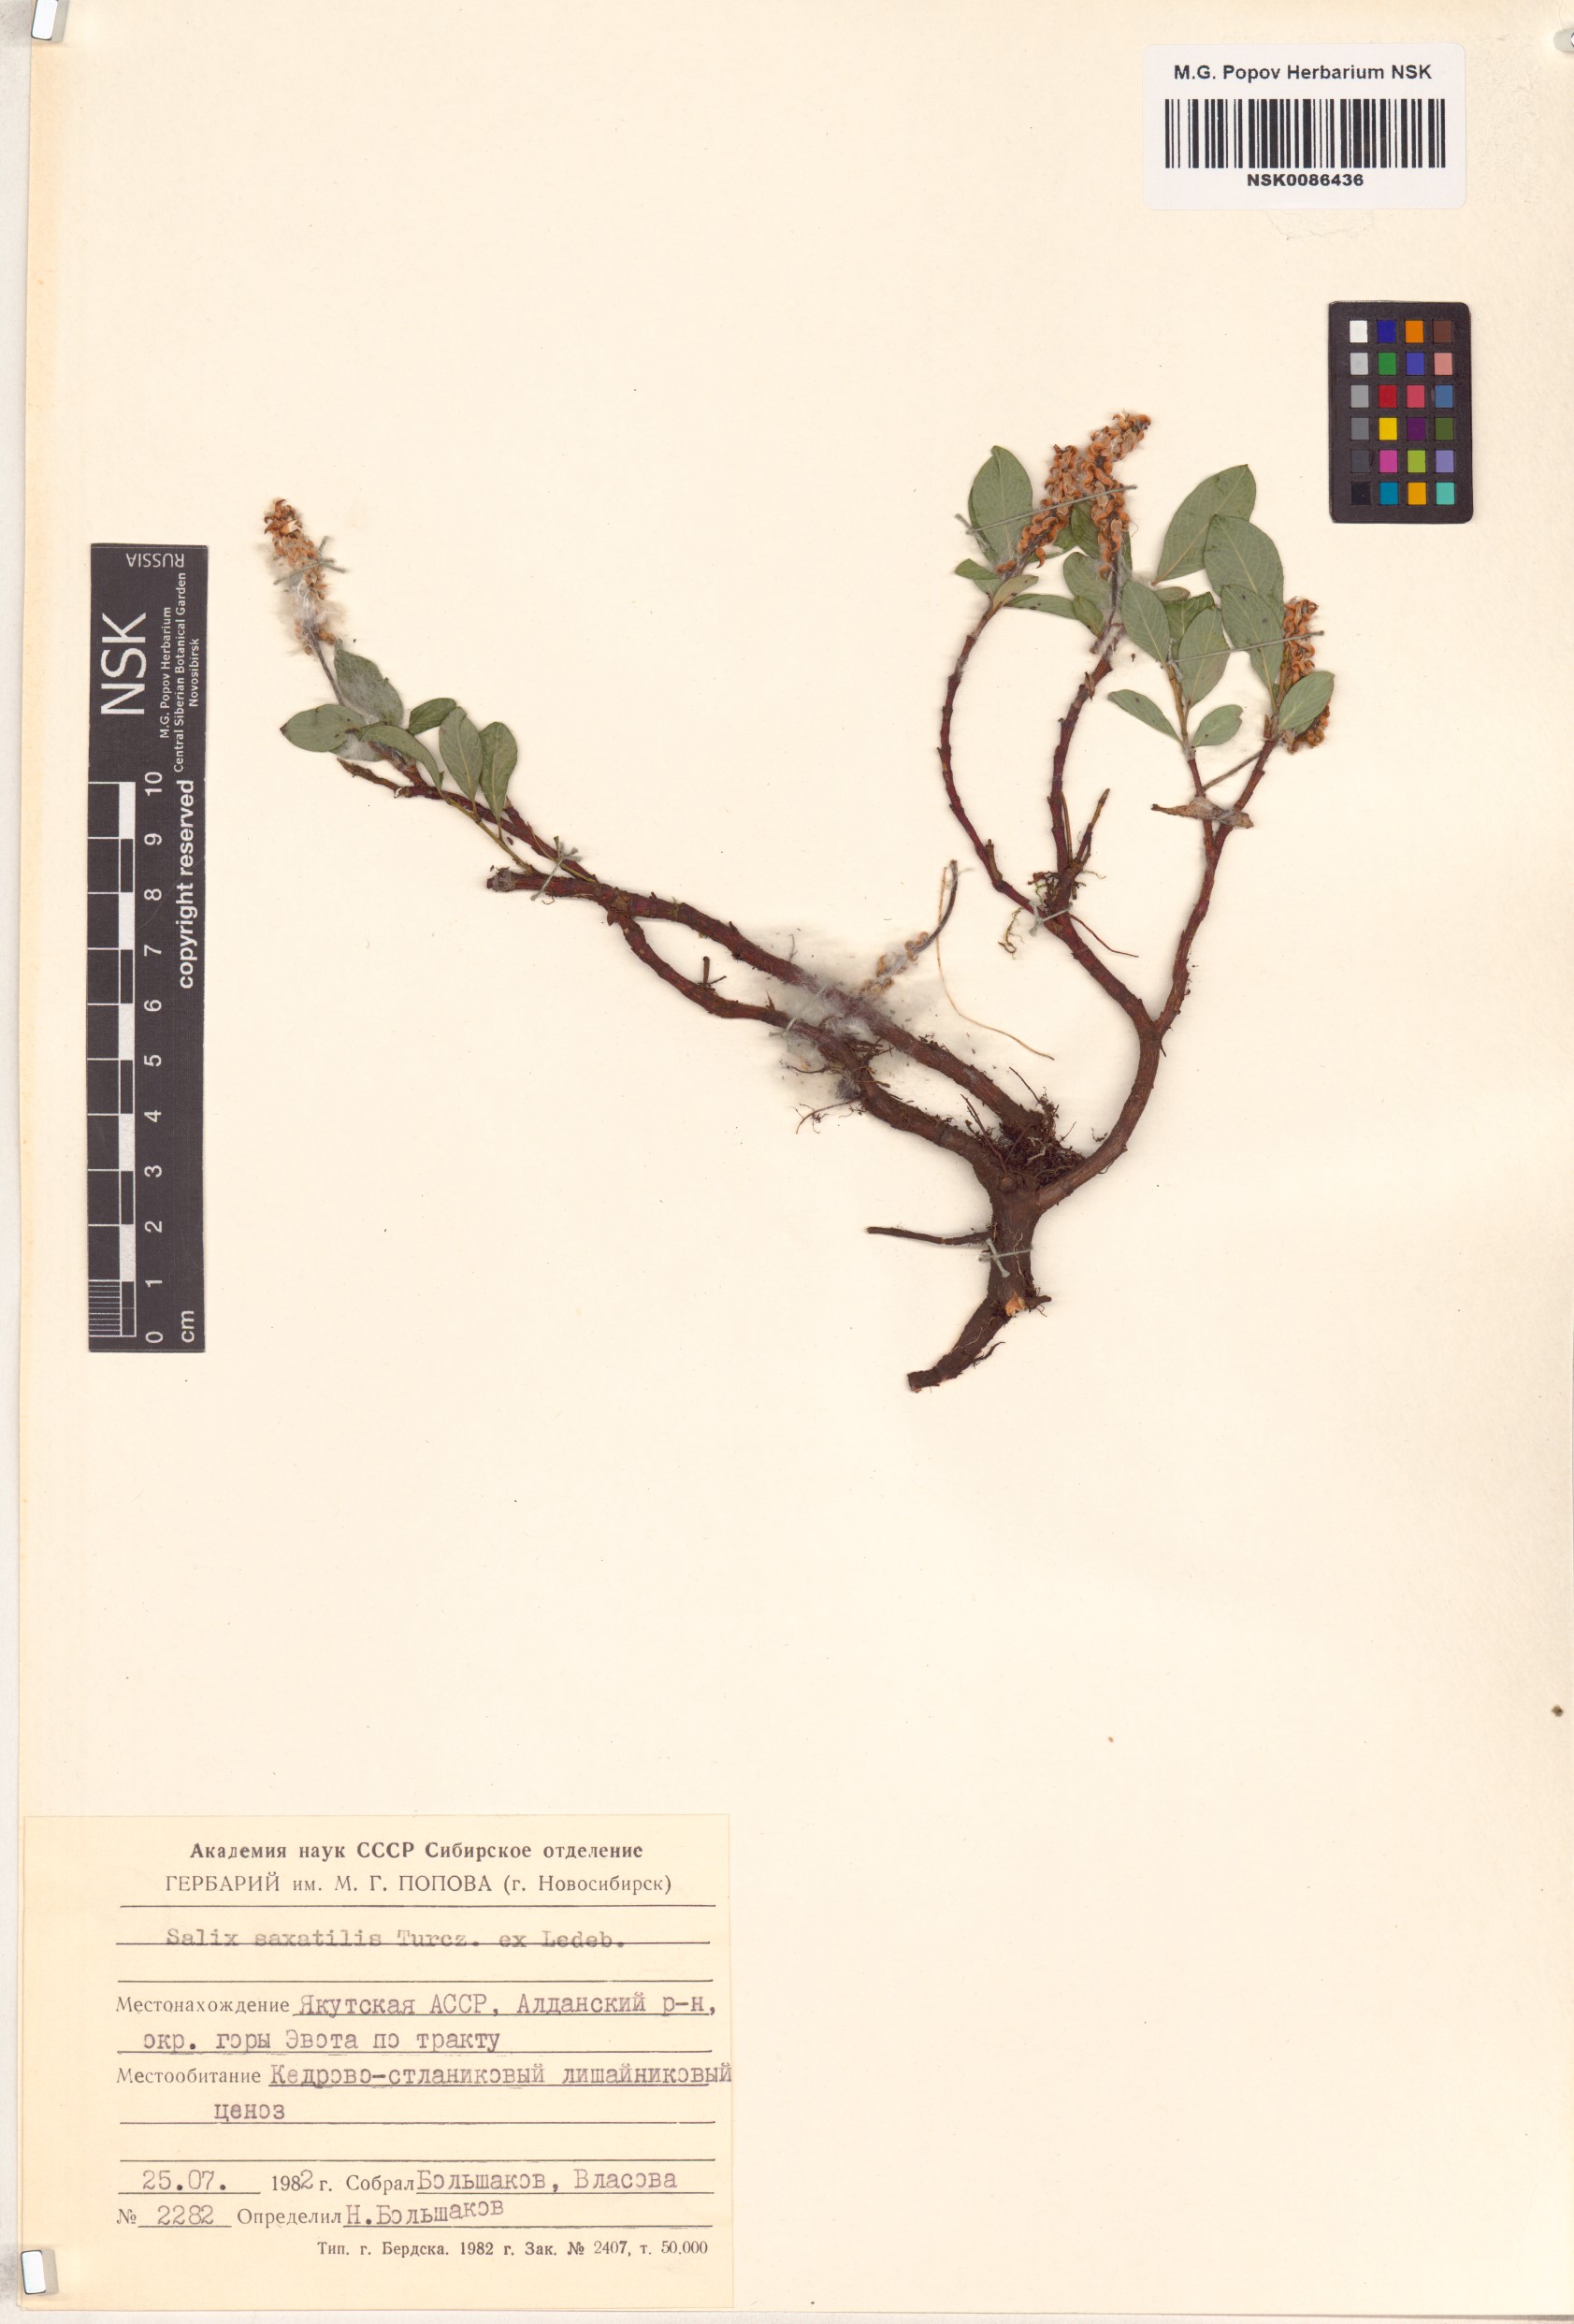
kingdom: Plantae
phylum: Tracheophyta
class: Magnoliopsida
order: Malpighiales
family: Salicaceae
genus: Salix
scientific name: Salix saxatilis
